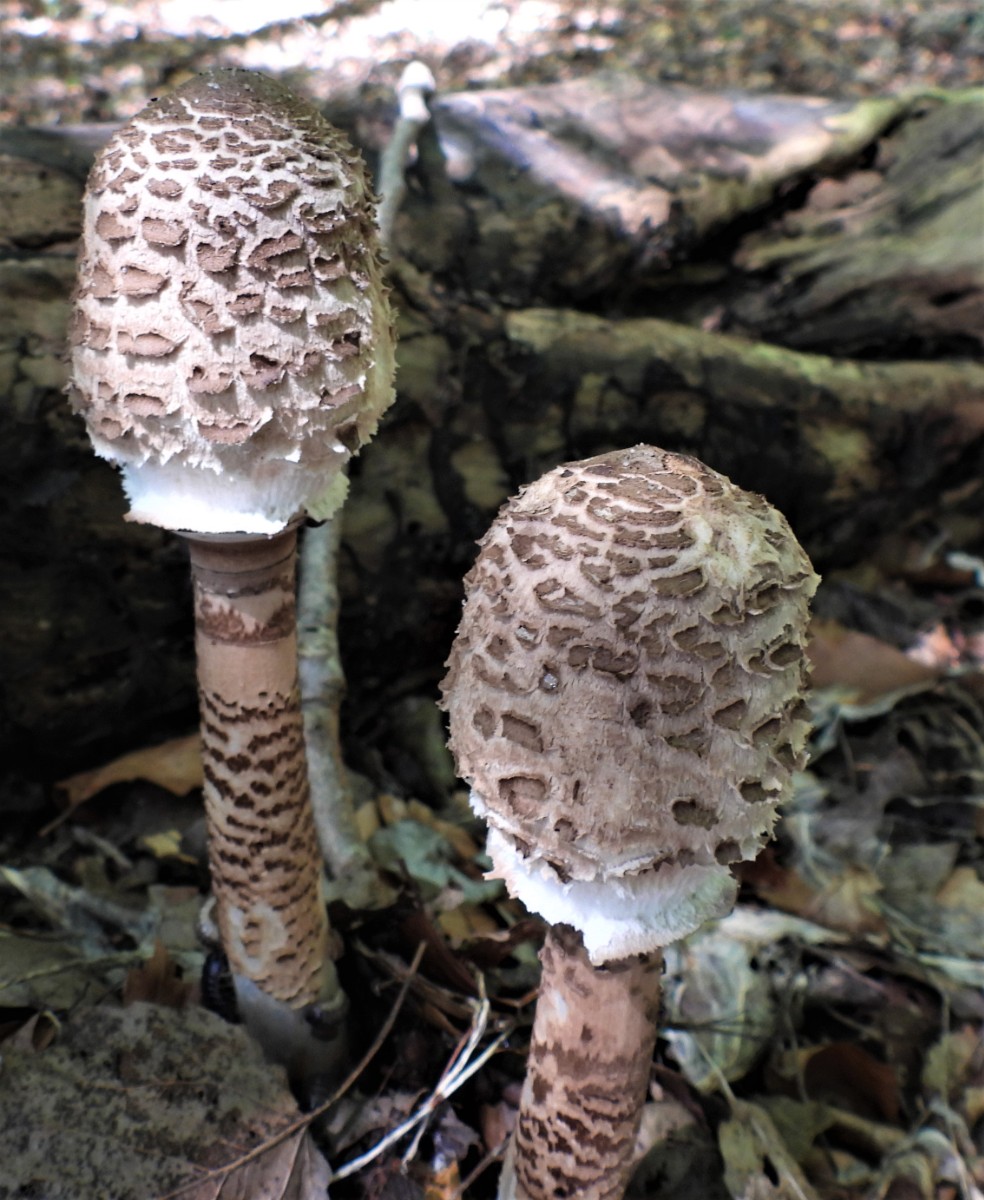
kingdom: Fungi
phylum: Basidiomycota
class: Agaricomycetes
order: Agaricales
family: Agaricaceae
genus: Macrolepiota
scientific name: Macrolepiota procera
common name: stor kæmpeparasolhat
